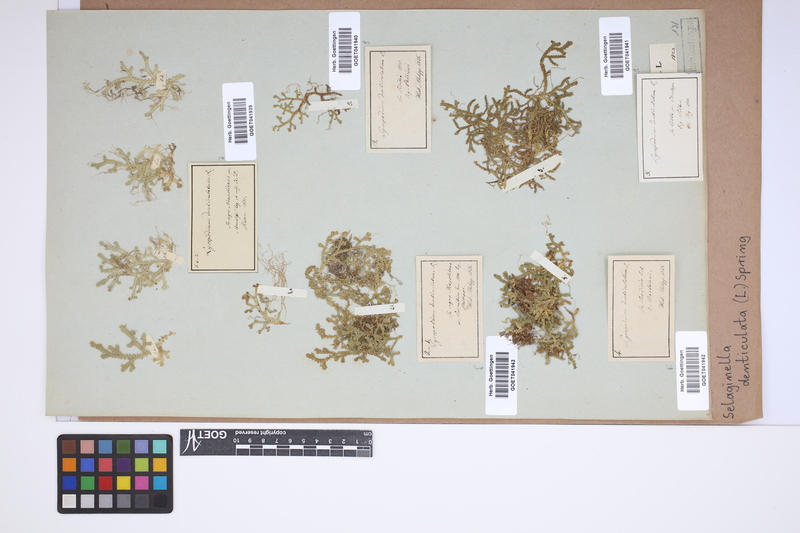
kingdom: Plantae
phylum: Tracheophyta
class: Lycopodiopsida
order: Selaginellales
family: Selaginellaceae
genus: Selaginella
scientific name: Selaginella denticulata
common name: Toothed-leaved clubmoss
